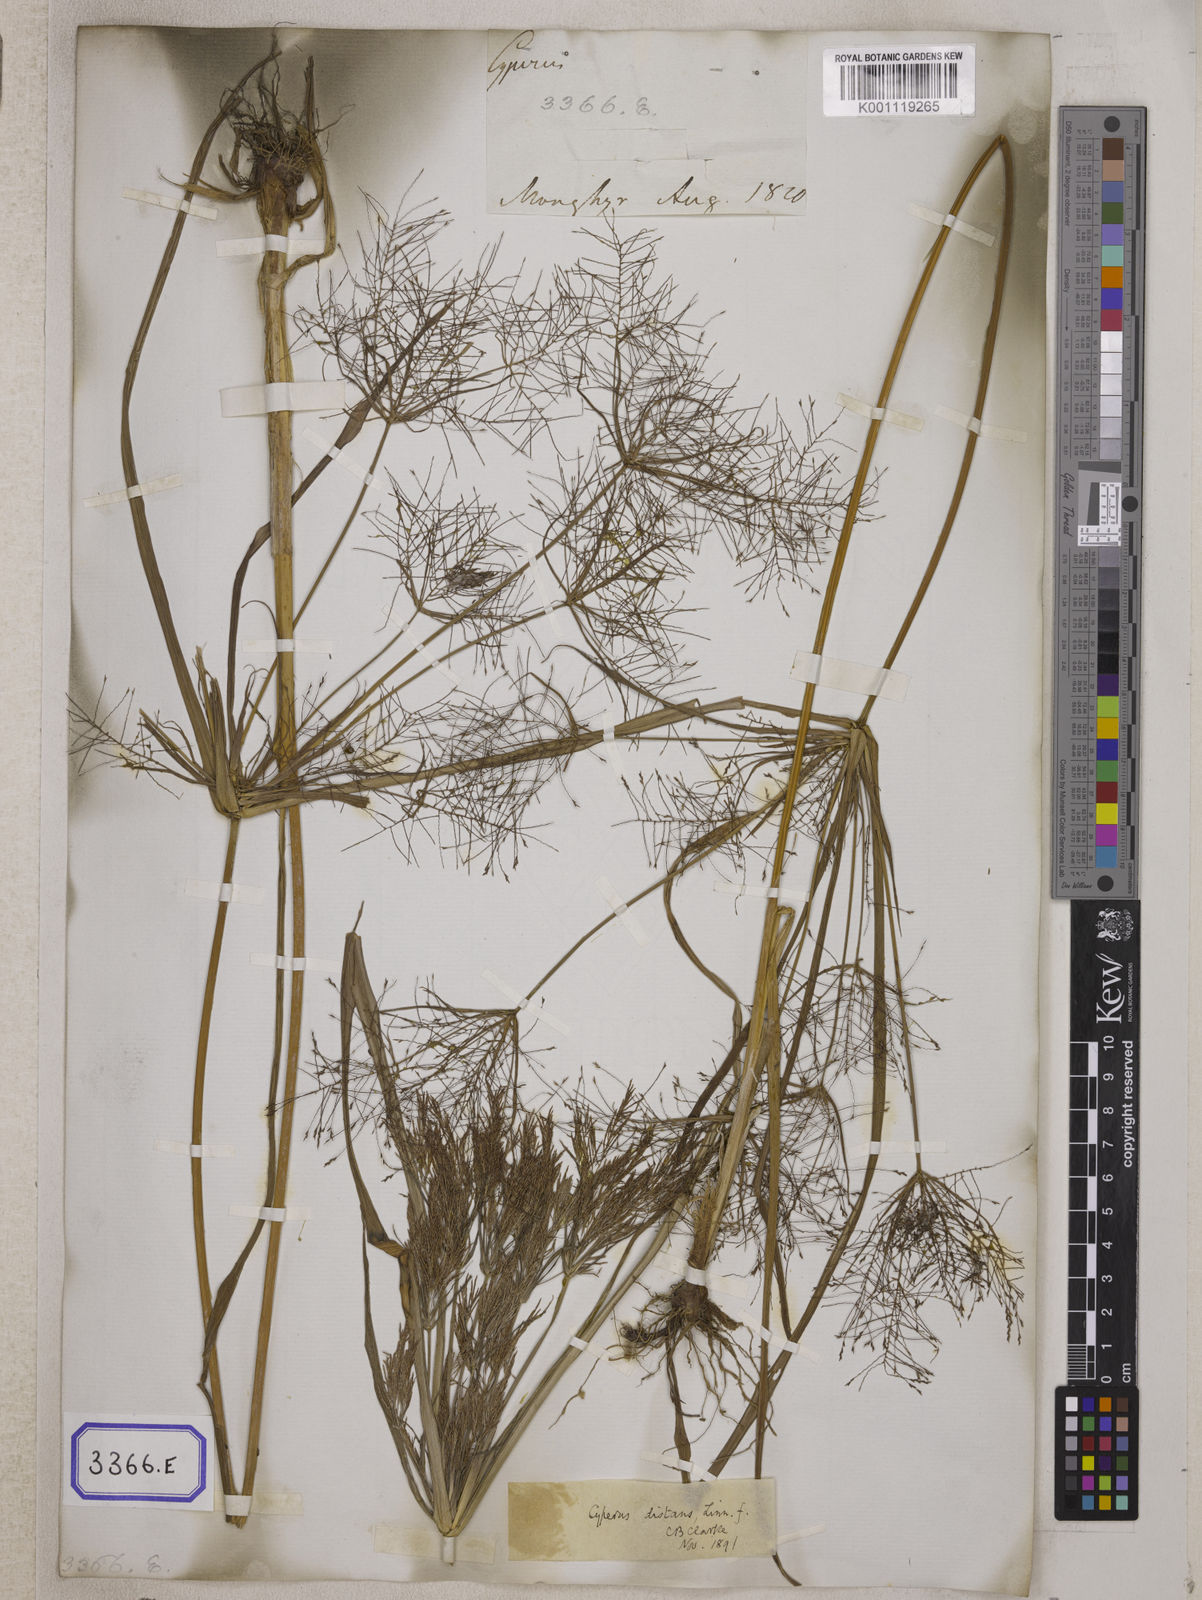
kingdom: Plantae
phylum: Tracheophyta
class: Liliopsida
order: Poales
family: Cyperaceae
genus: Cyperus
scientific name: Cyperus
